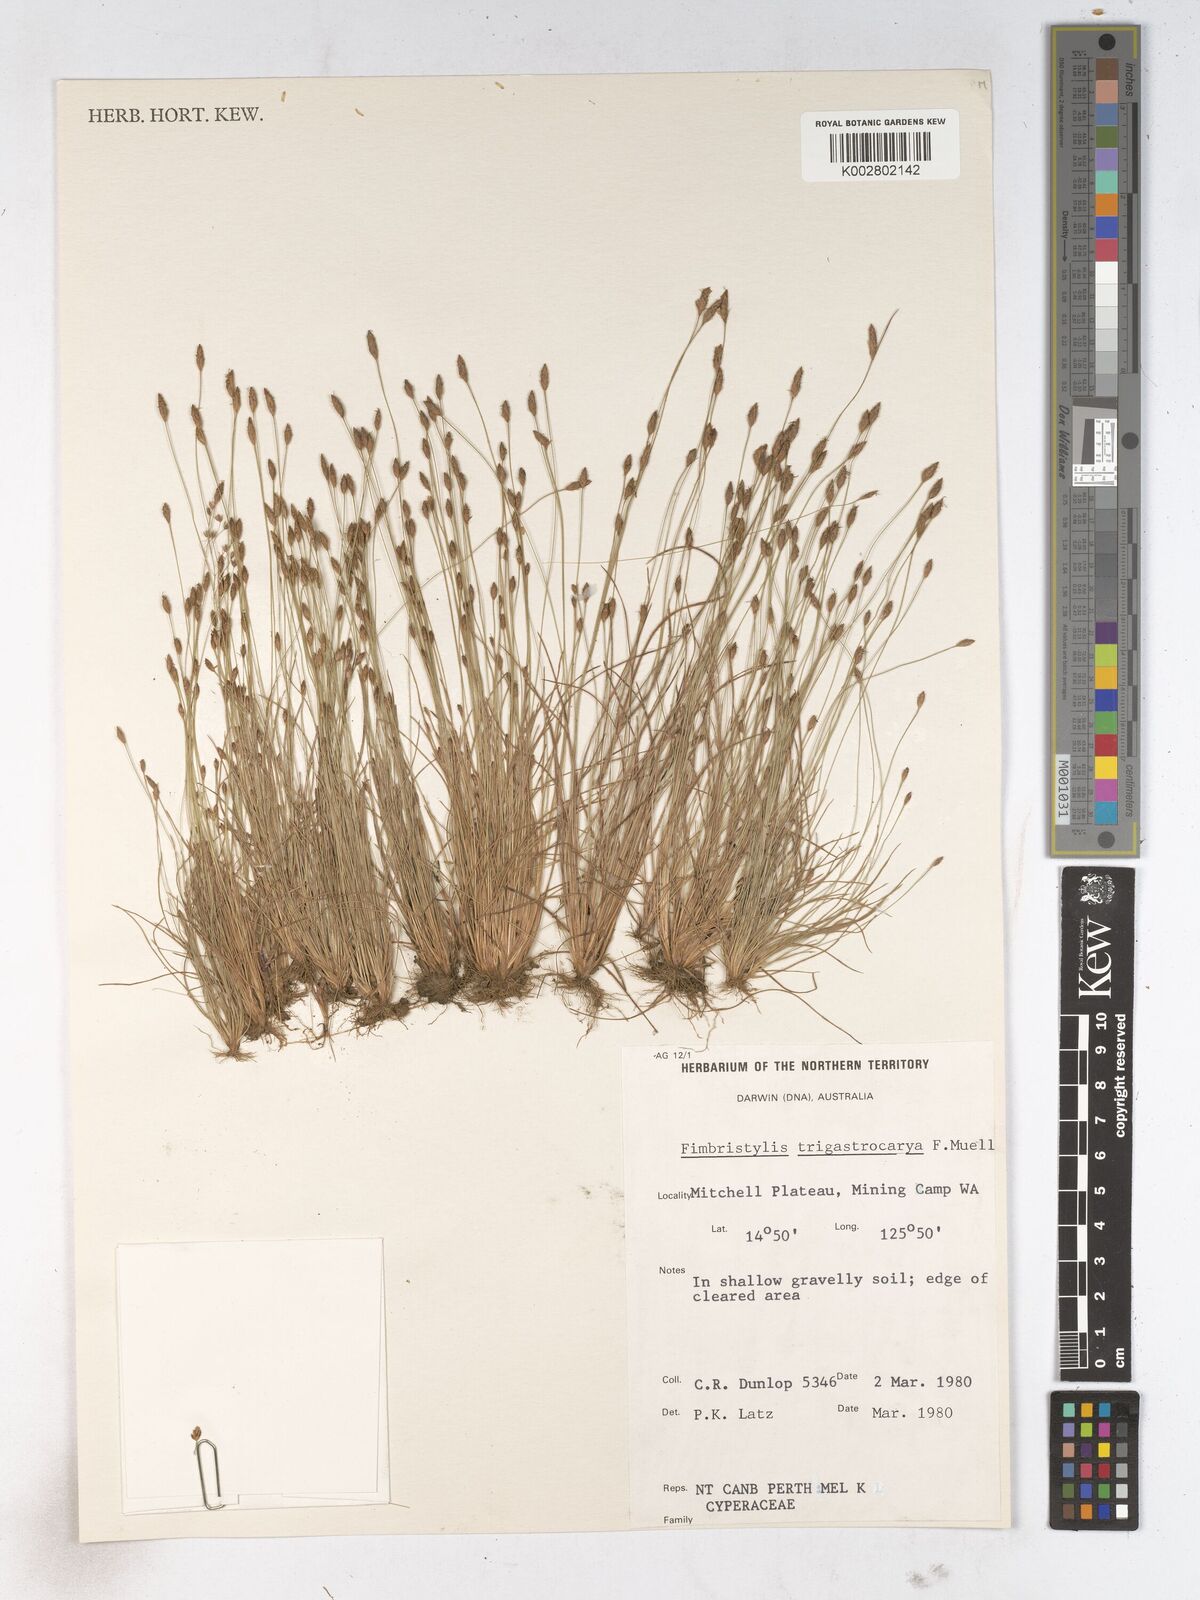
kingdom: Plantae
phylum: Tracheophyta
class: Liliopsida
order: Poales
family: Cyperaceae
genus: Fimbristylis
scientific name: Fimbristylis trigastrocarya
